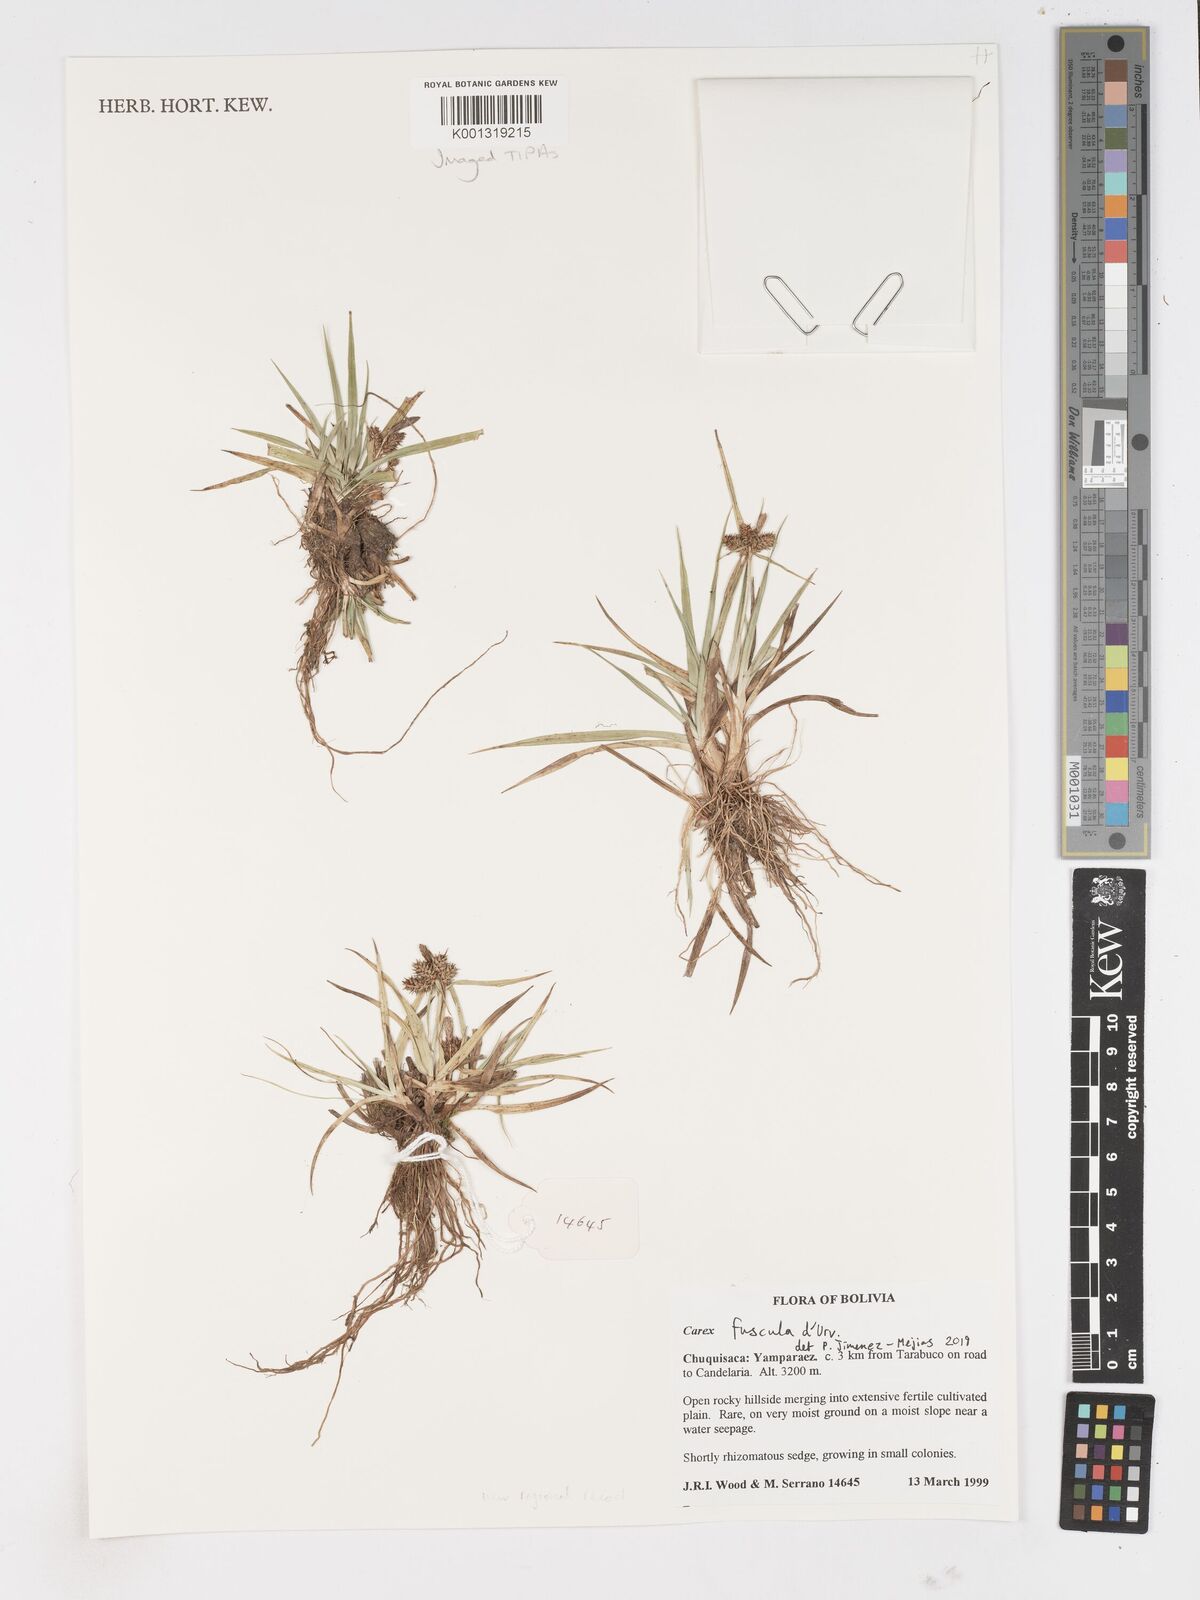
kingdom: Plantae
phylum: Tracheophyta
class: Liliopsida
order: Poales
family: Cyperaceae
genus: Carex
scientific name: Carex fuscula
